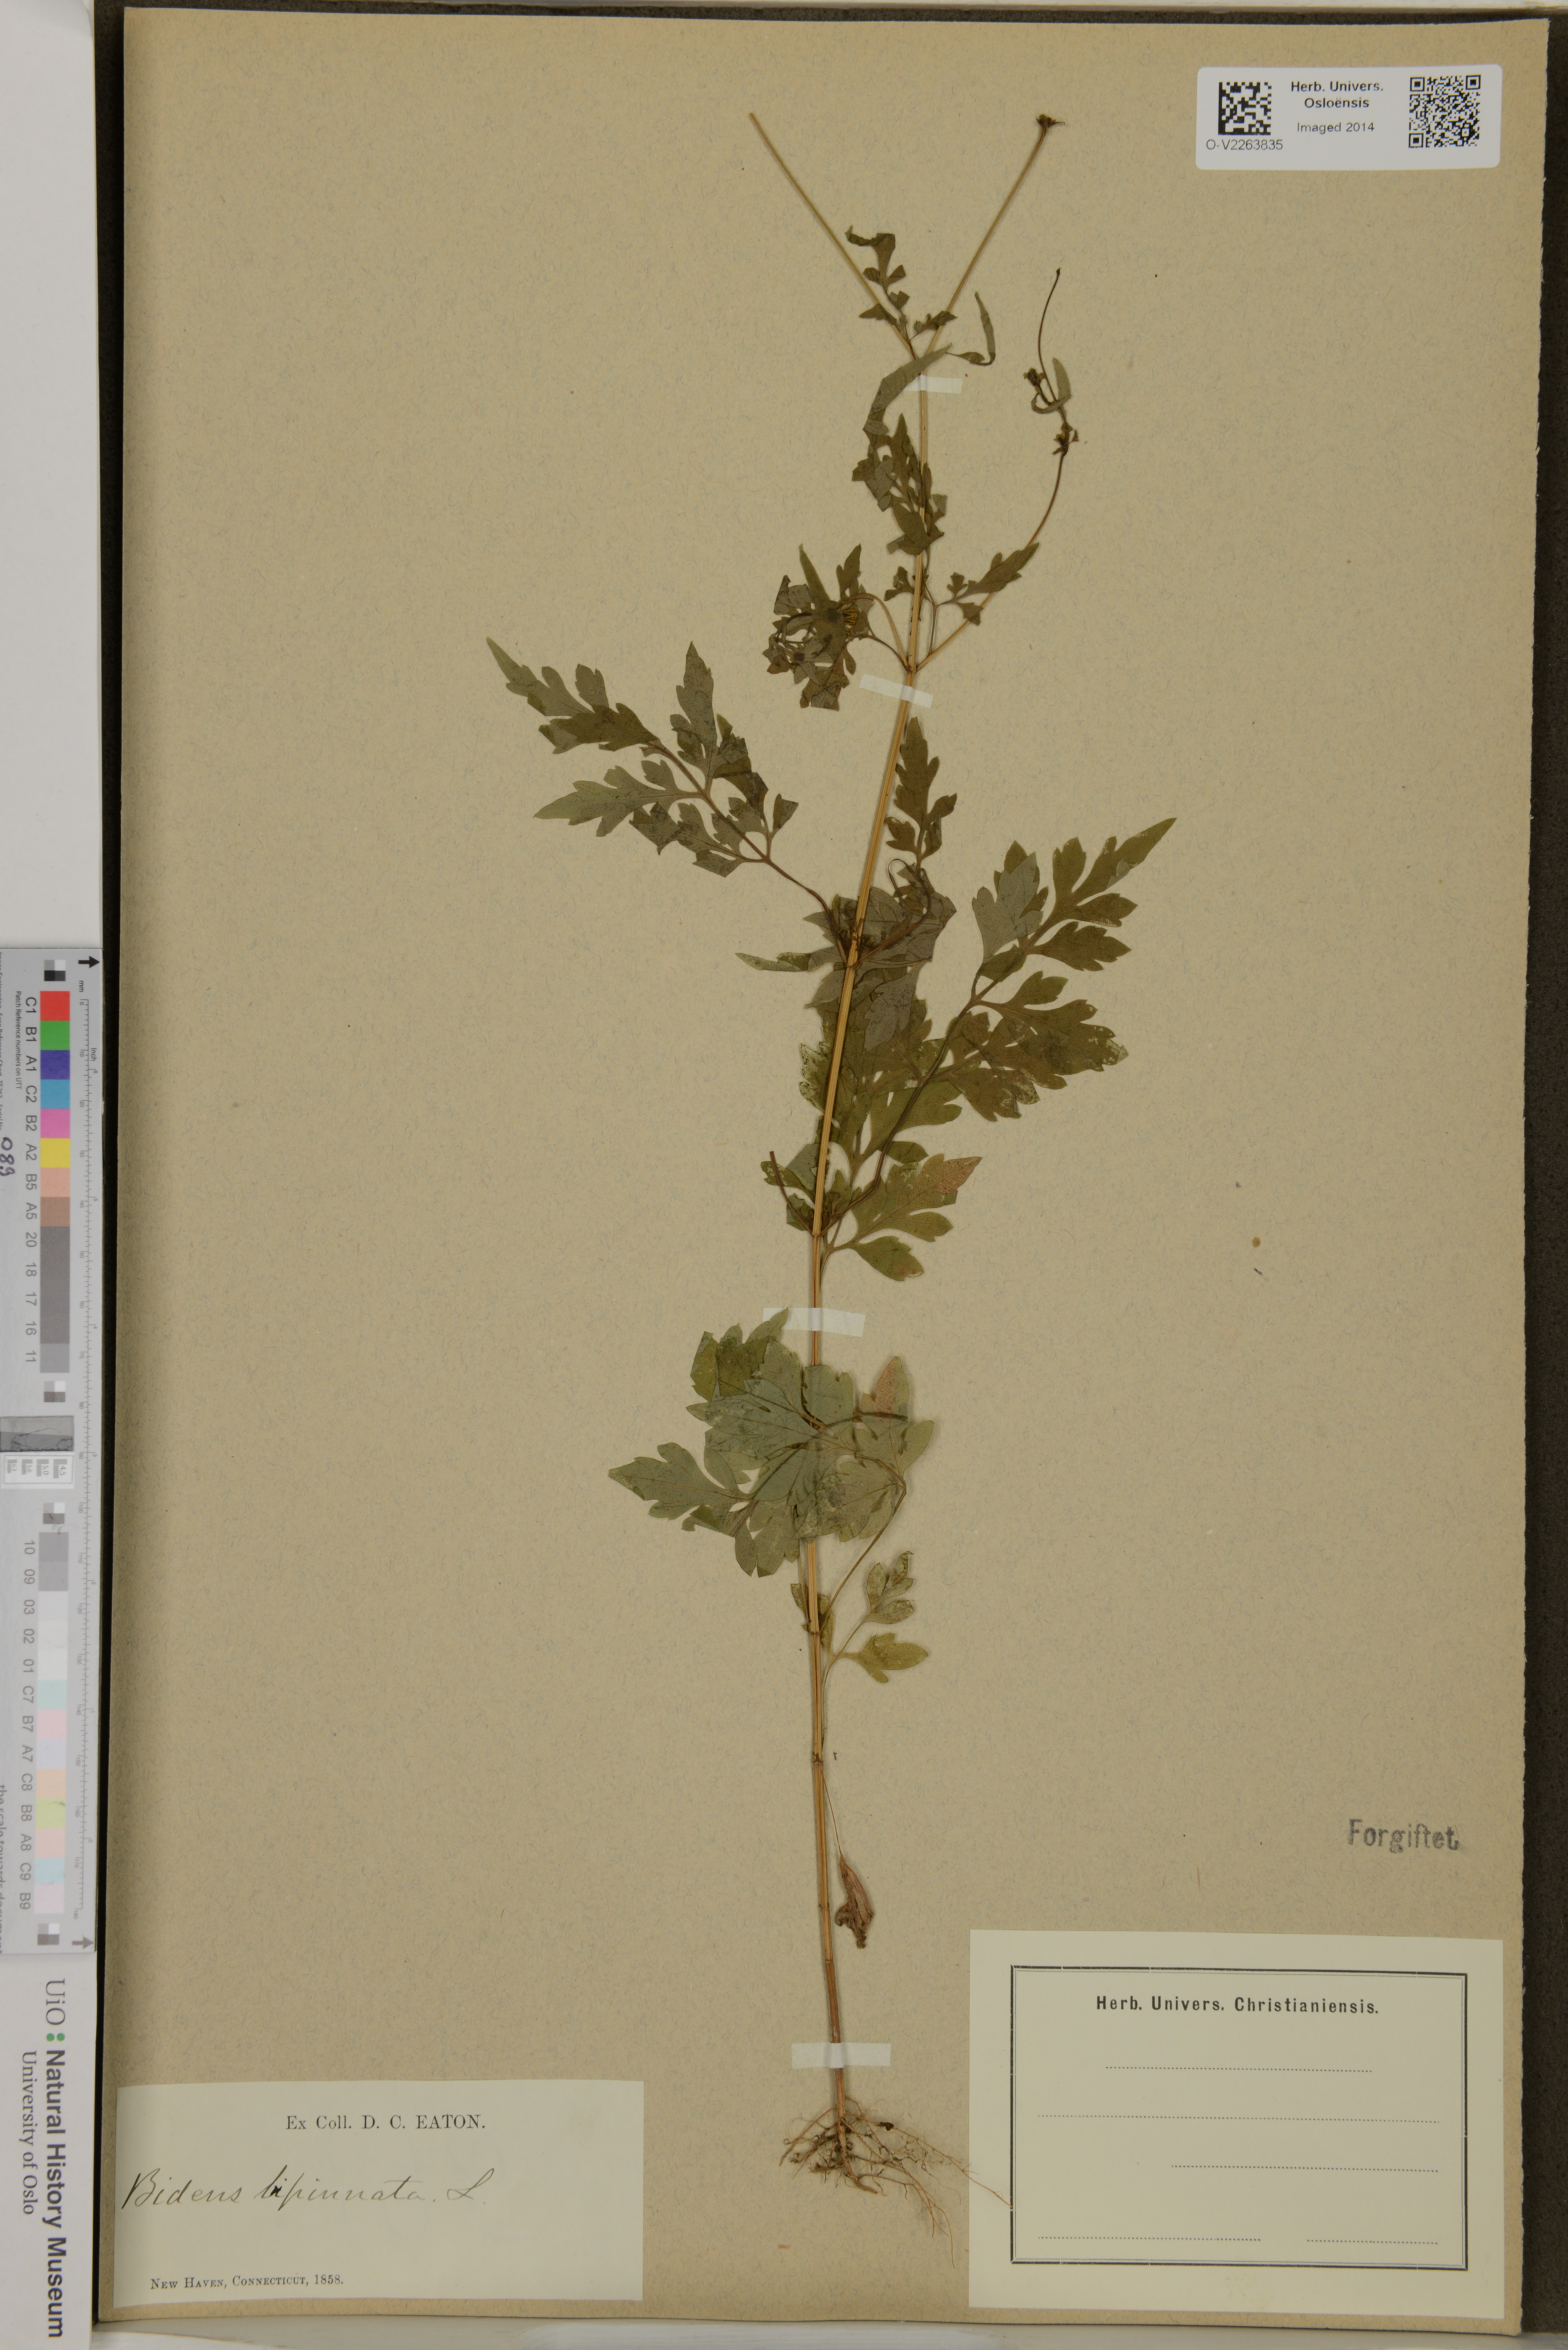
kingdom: Plantae
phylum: Tracheophyta
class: Magnoliopsida
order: Asterales
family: Asteraceae
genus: Bidens
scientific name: Bidens bipinnata
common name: Spanish-needles
